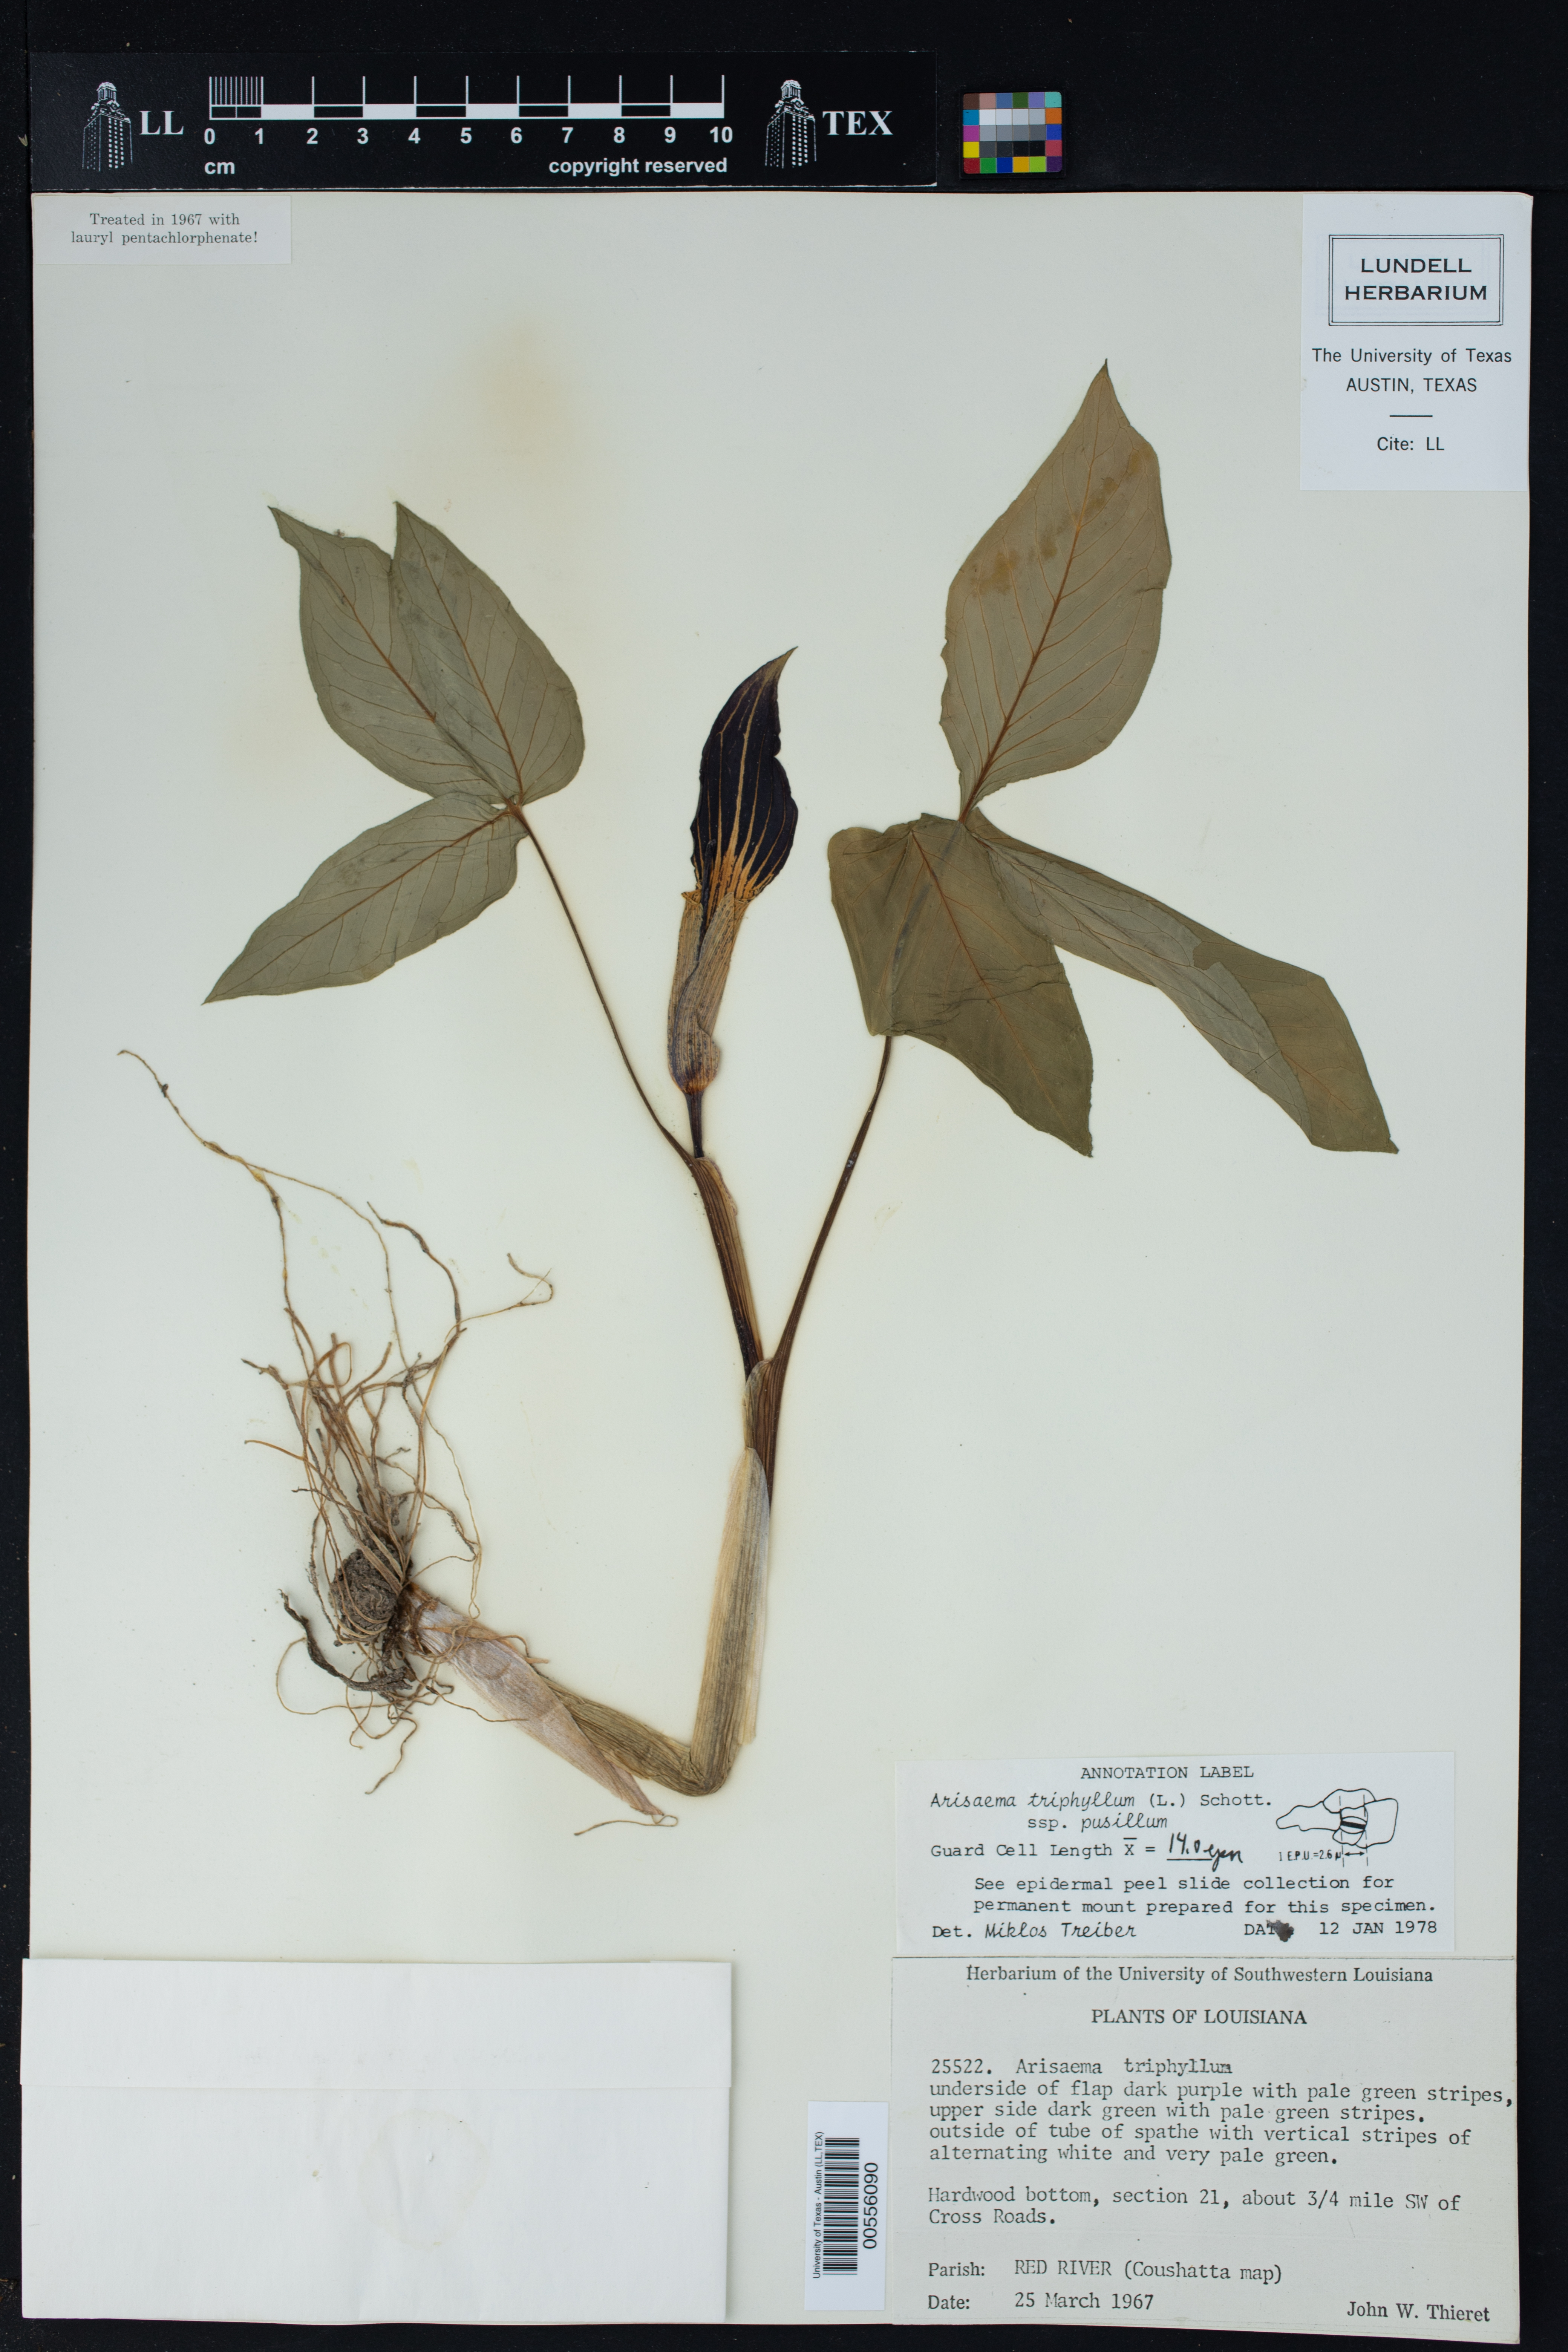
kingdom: Plantae
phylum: Tracheophyta
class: Liliopsida
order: Alismatales
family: Araceae
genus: Arisaema
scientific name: Arisaema pusillum
